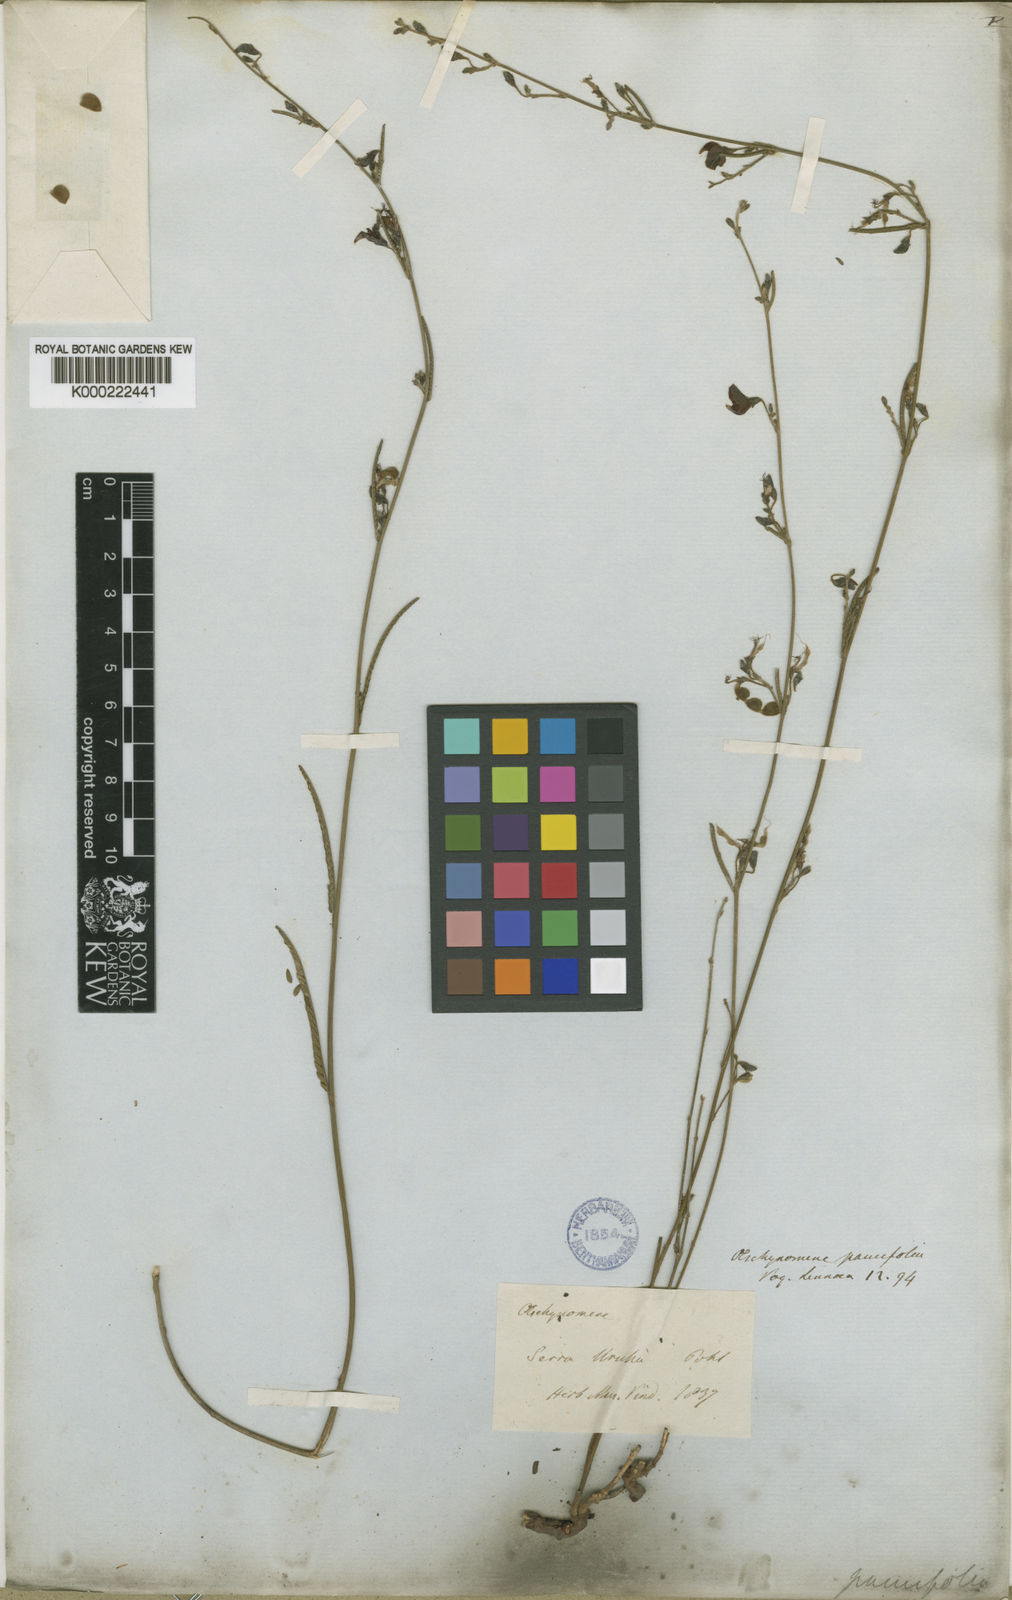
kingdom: Plantae
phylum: Tracheophyta
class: Magnoliopsida
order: Fabales
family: Fabaceae
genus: Ctenodon
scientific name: Ctenodon molliculus
